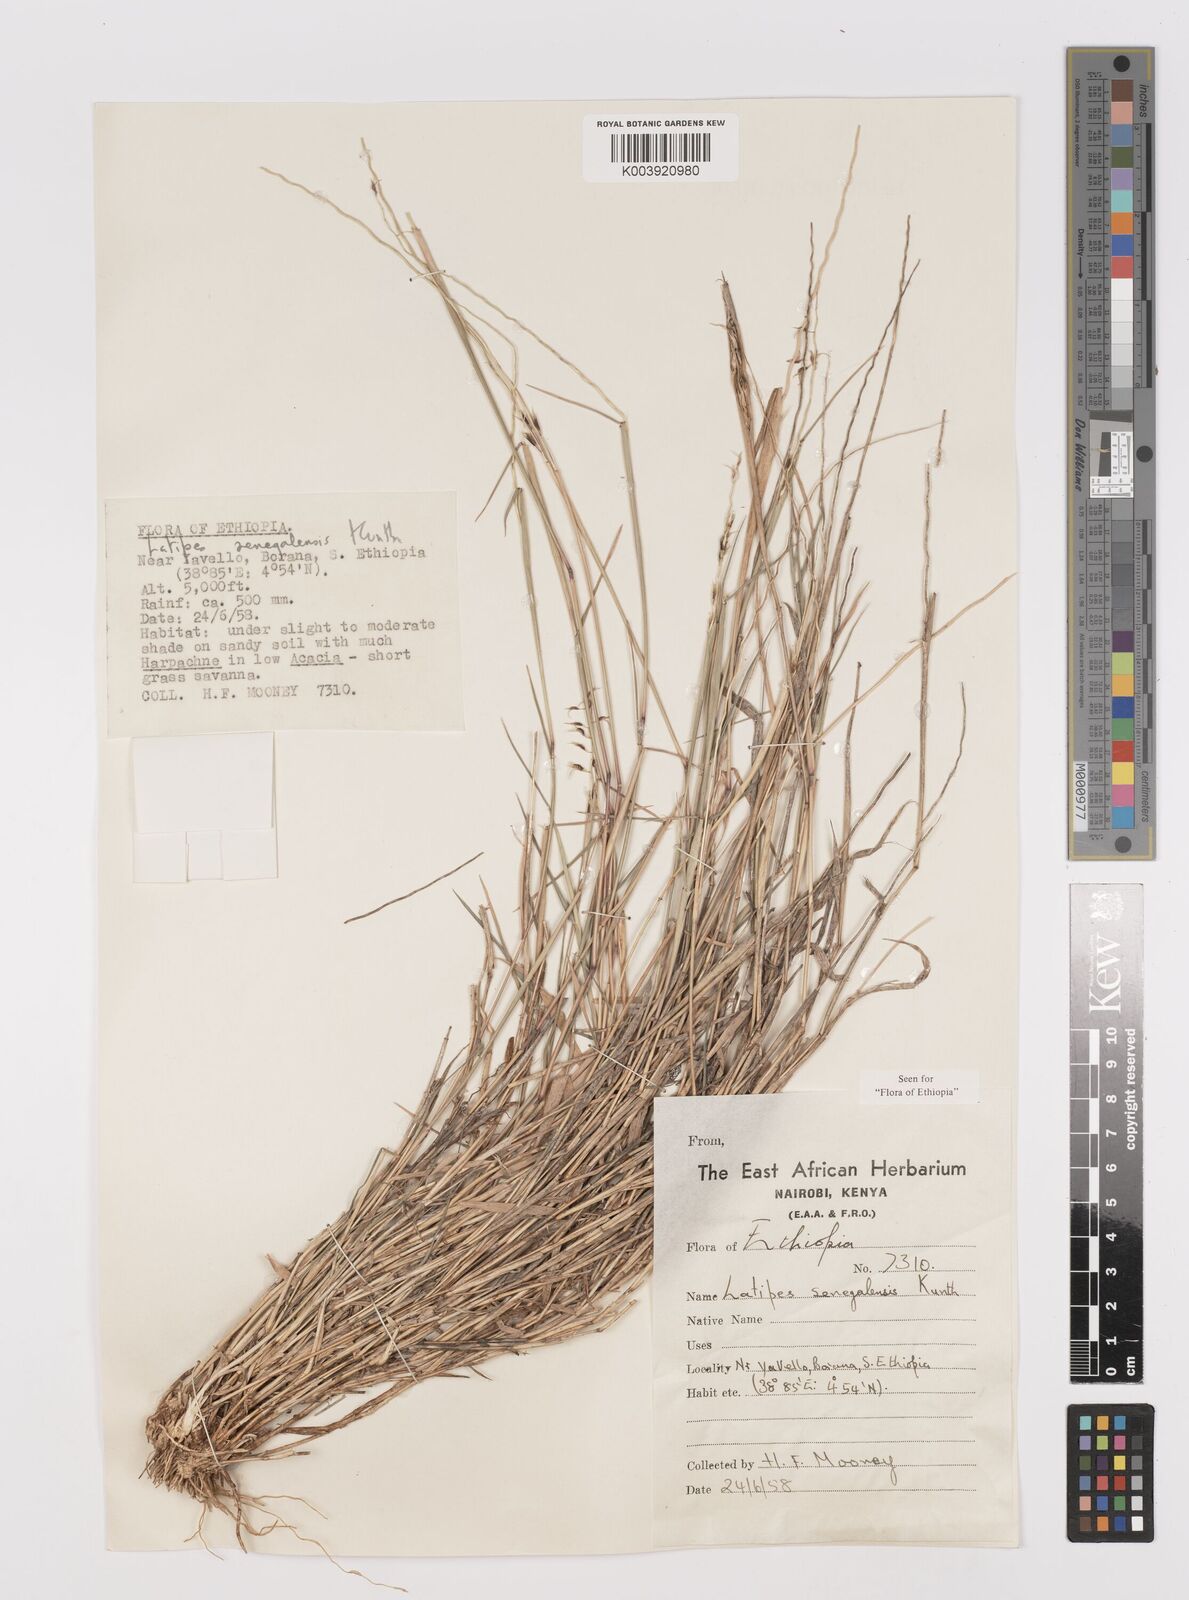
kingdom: Plantae
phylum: Tracheophyta
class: Liliopsida
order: Poales
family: Poaceae
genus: Leptothrium
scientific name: Leptothrium senegalense
